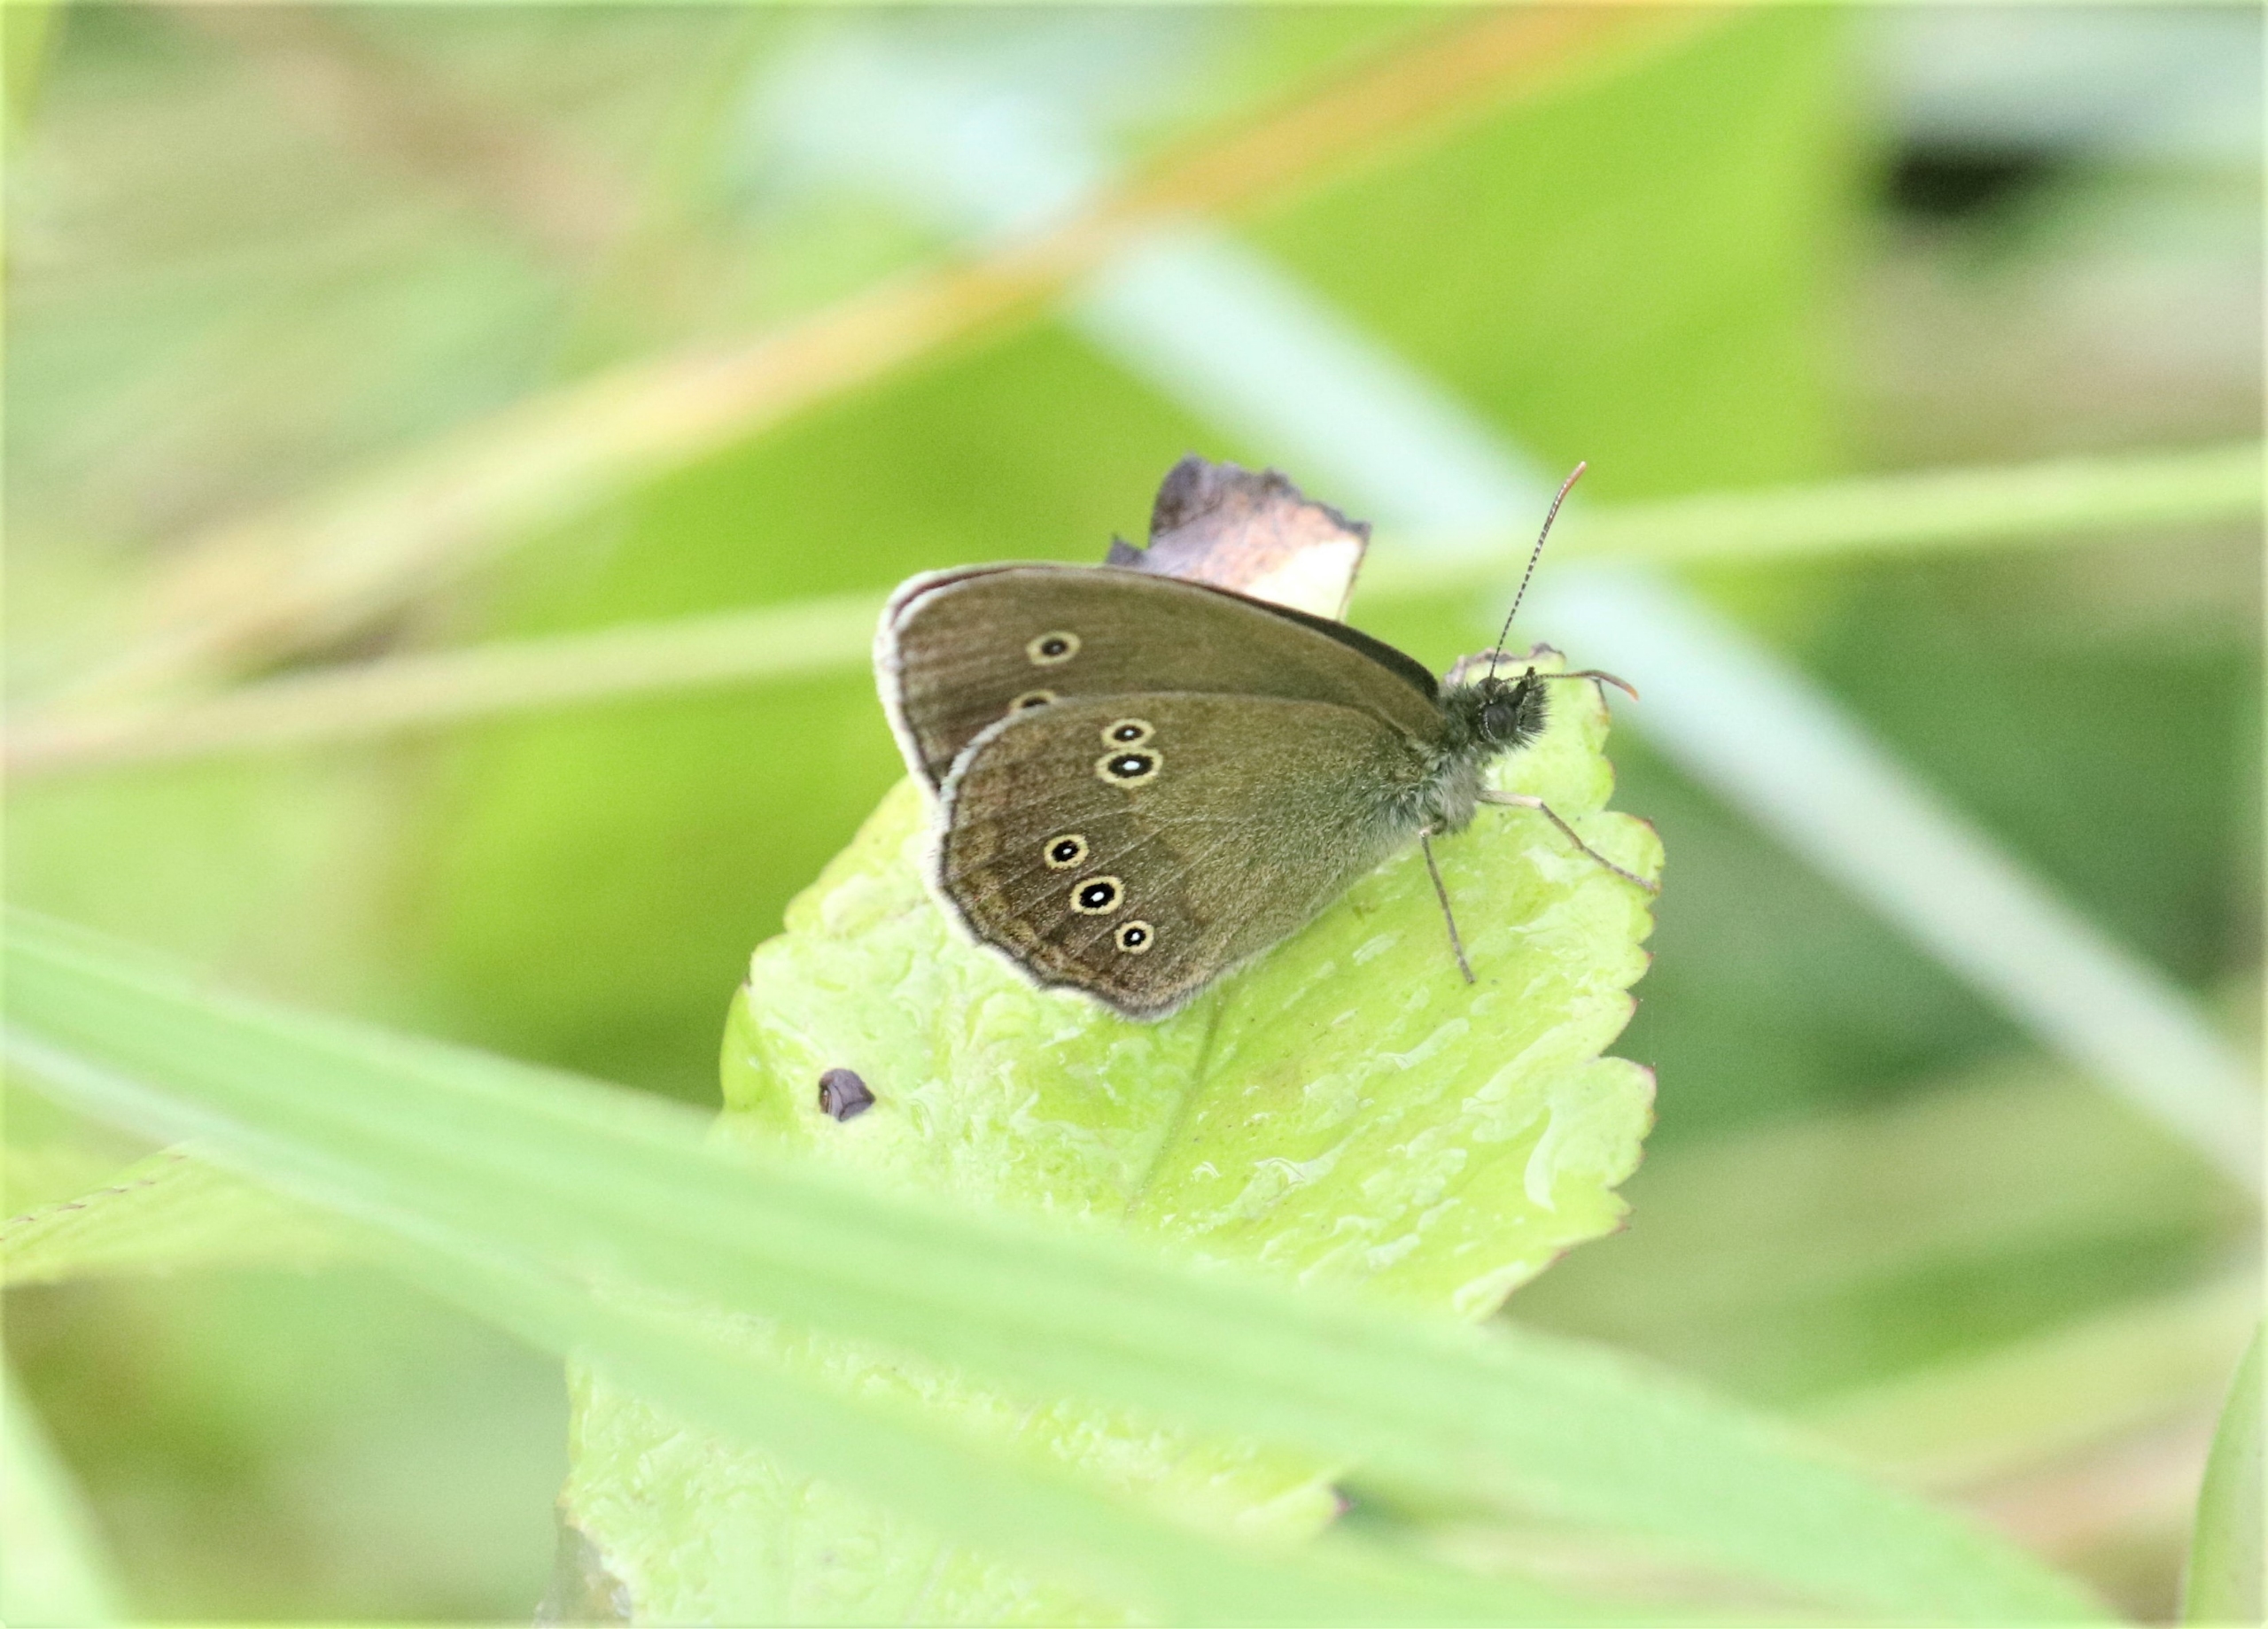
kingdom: Animalia
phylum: Arthropoda
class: Insecta
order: Lepidoptera
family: Nymphalidae
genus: Aphantopus
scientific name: Aphantopus hyperantus
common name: Engrandøje
